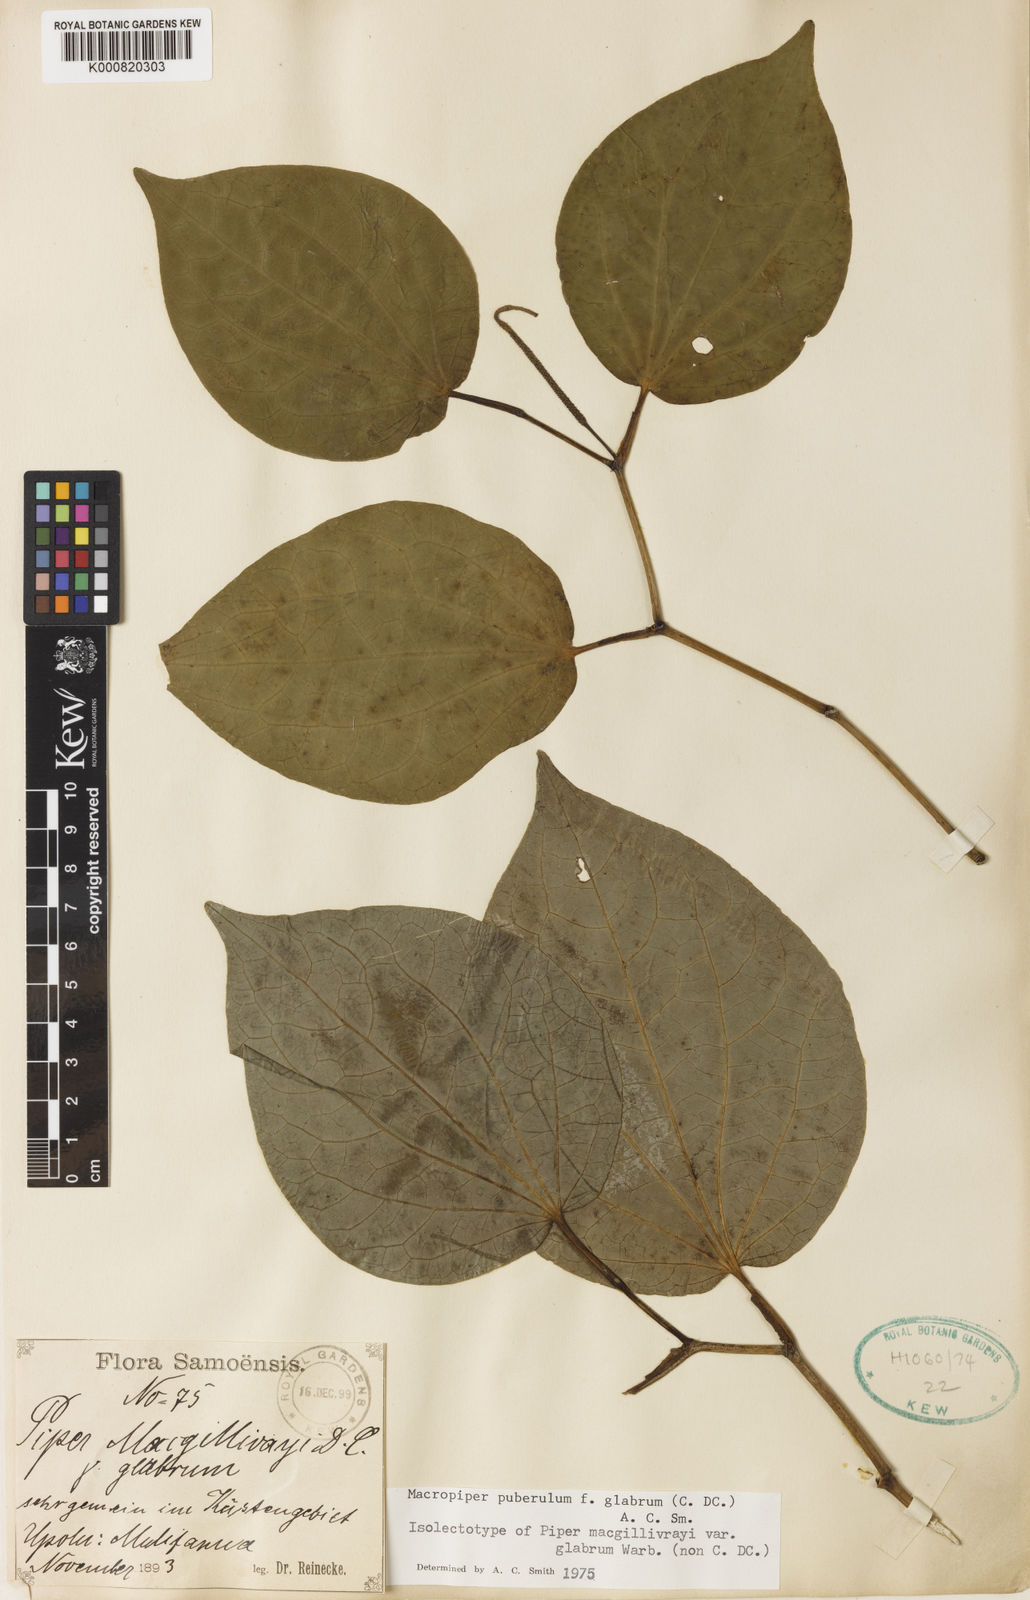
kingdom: Plantae
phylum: Tracheophyta
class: Magnoliopsida
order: Piperales
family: Piperaceae
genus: Macropiper
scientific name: Macropiper puberulum
